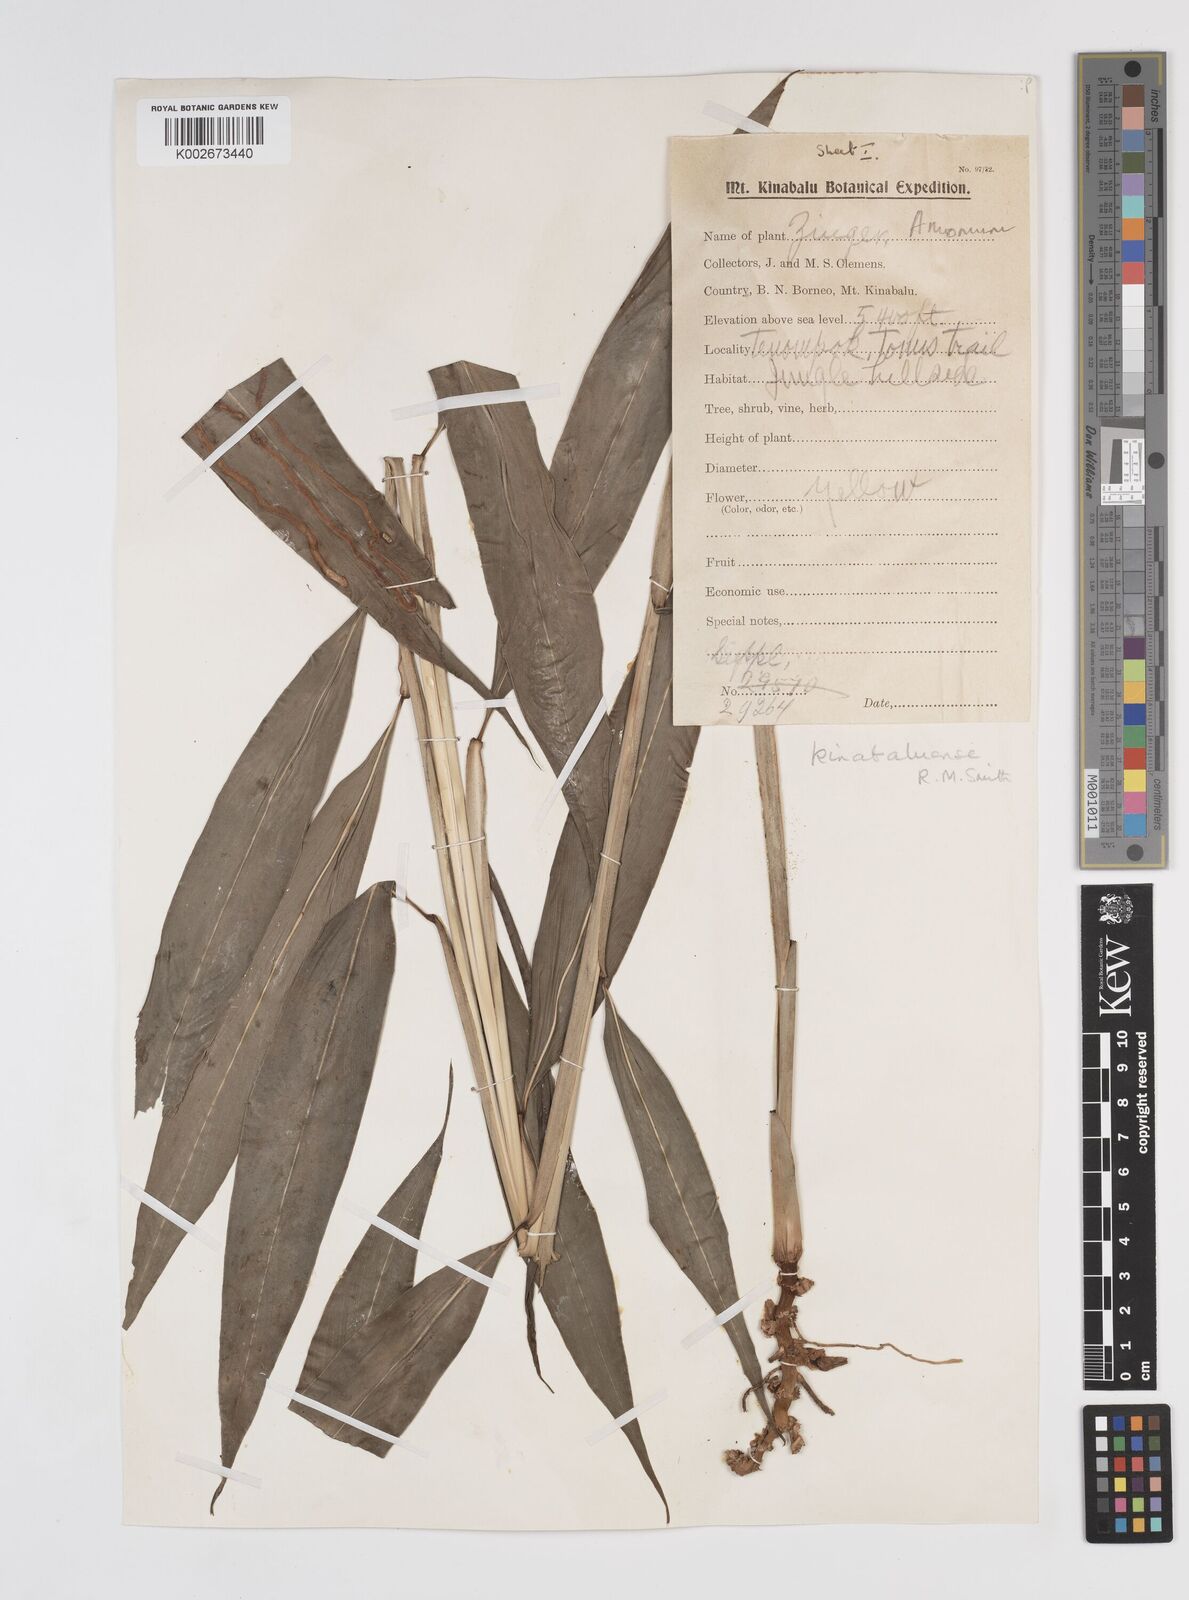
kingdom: Plantae
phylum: Tracheophyta
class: Liliopsida
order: Zingiberales
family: Zingiberaceae
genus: Meistera
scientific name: Meistera kinabaluensis
